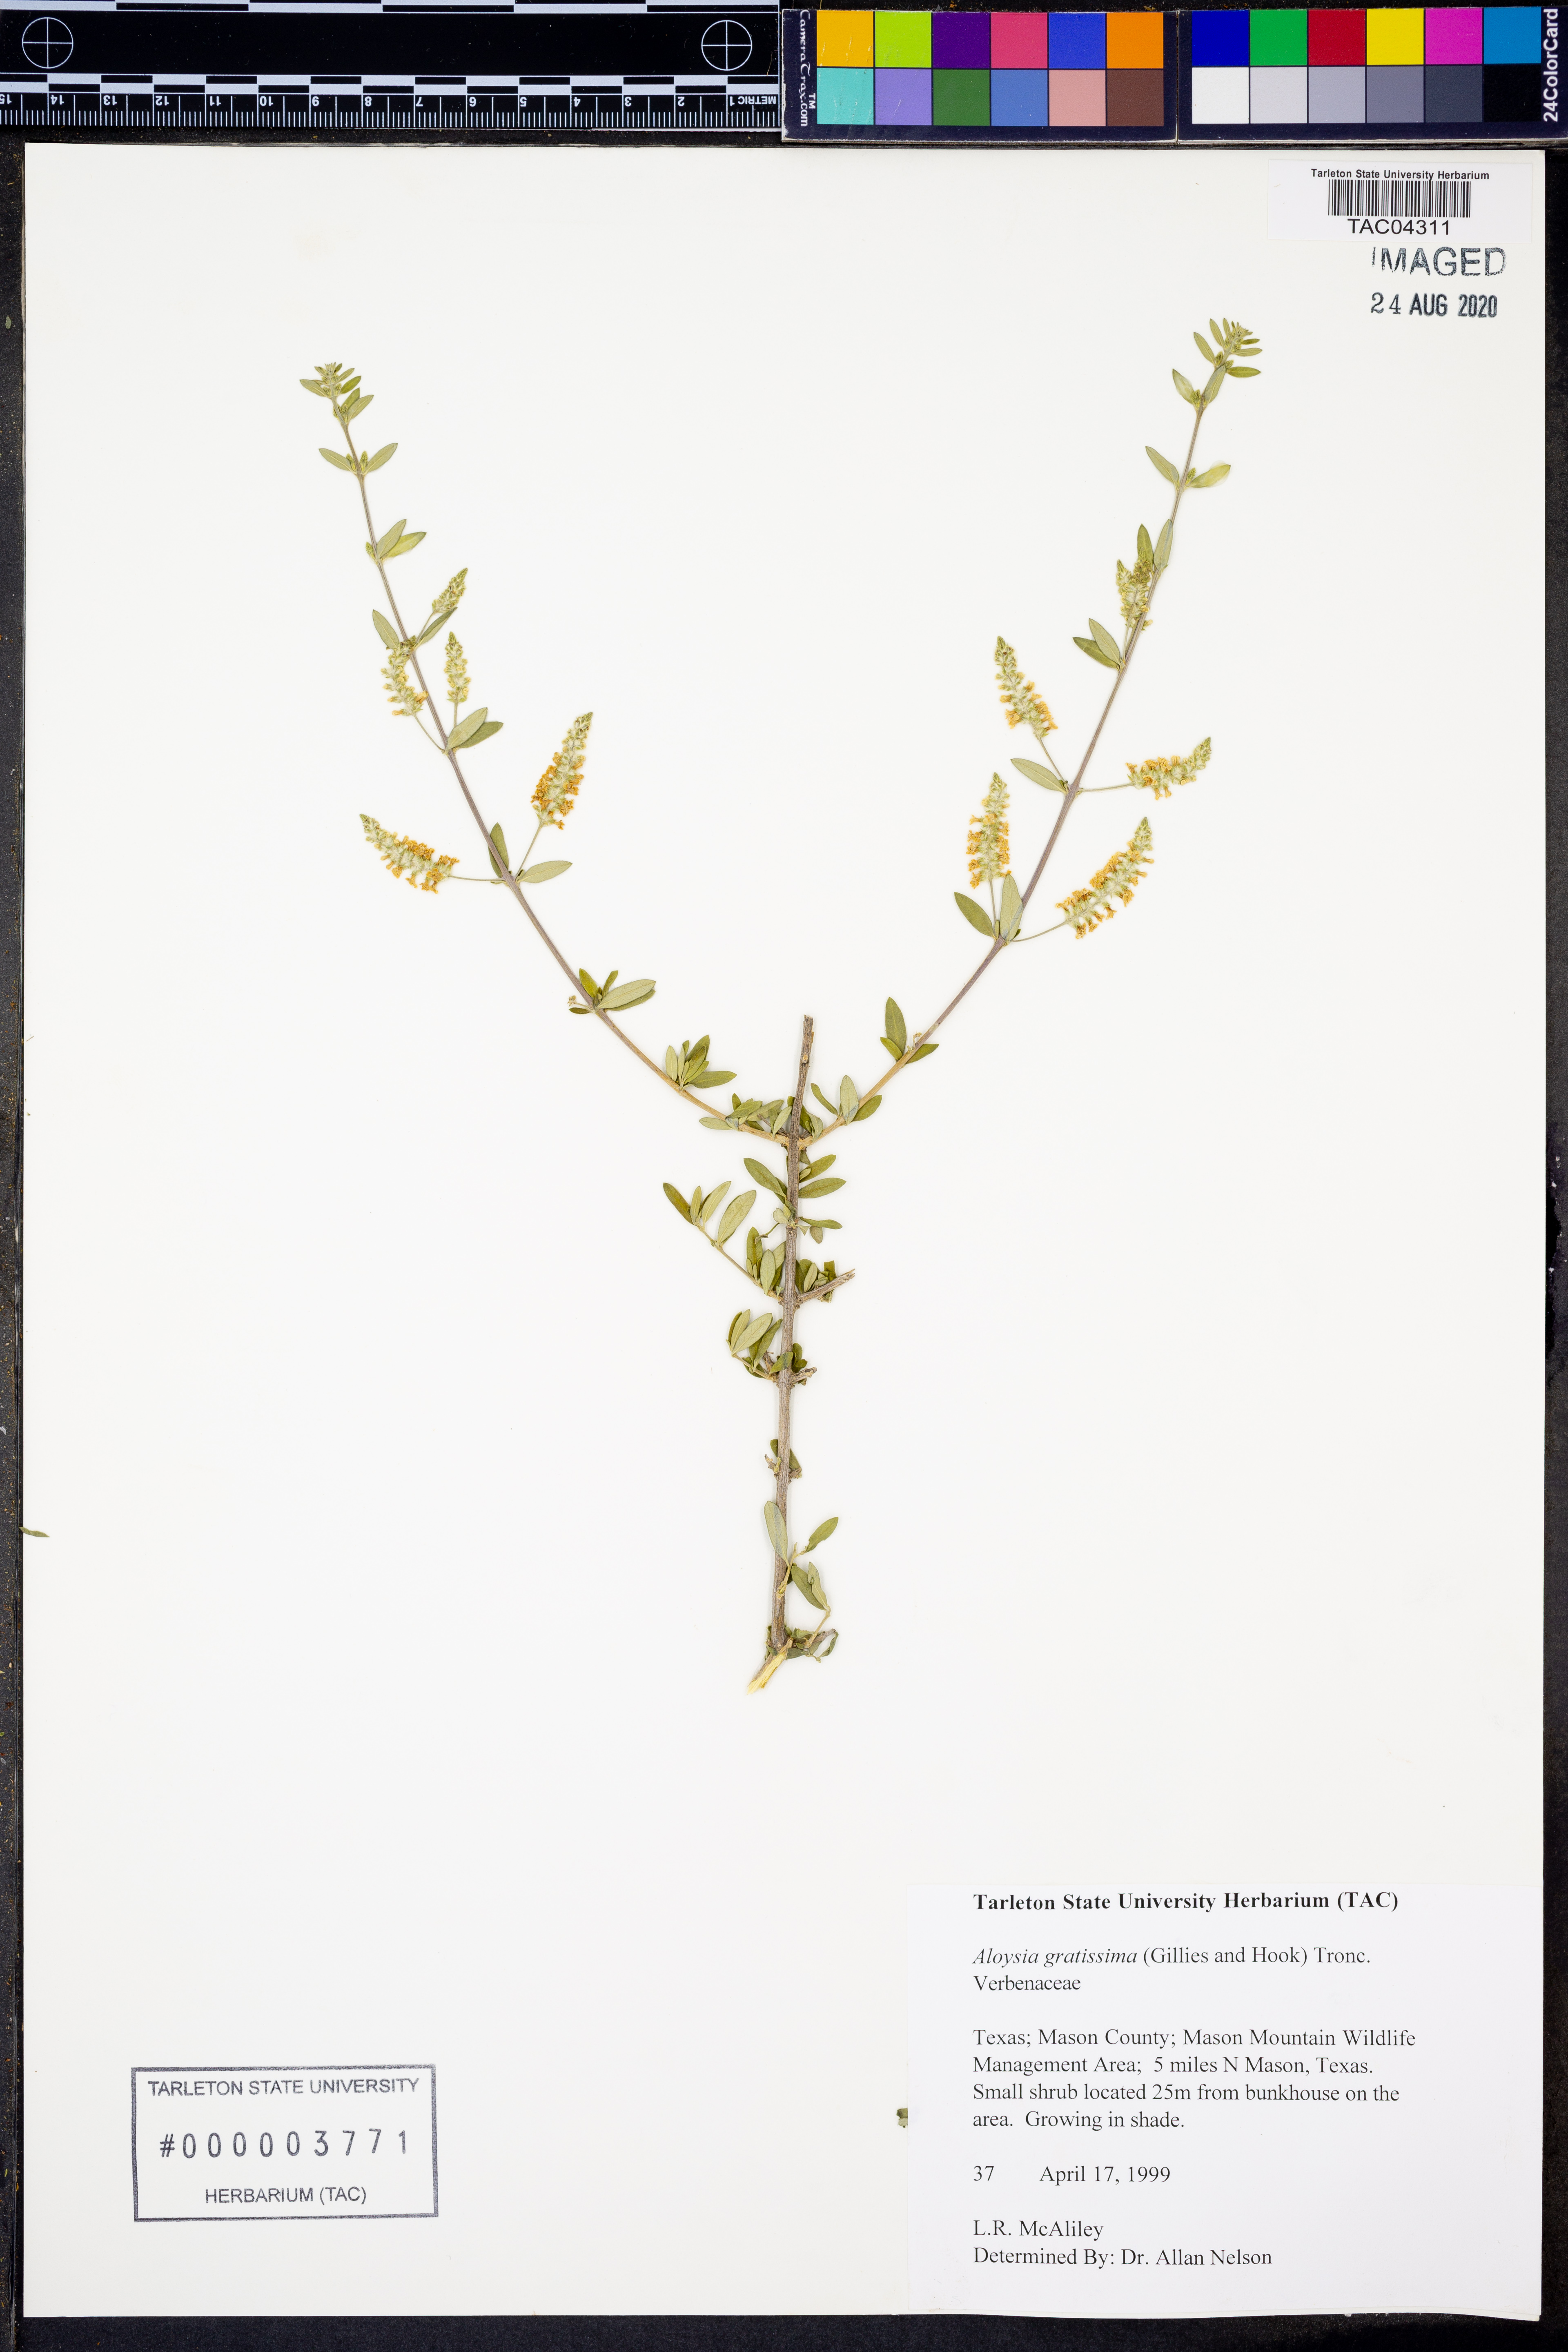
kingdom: Plantae
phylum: Tracheophyta
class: Magnoliopsida
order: Lamiales
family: Verbenaceae
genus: Aloysia
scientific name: Aloysia gratissima
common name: Common bee-brush
